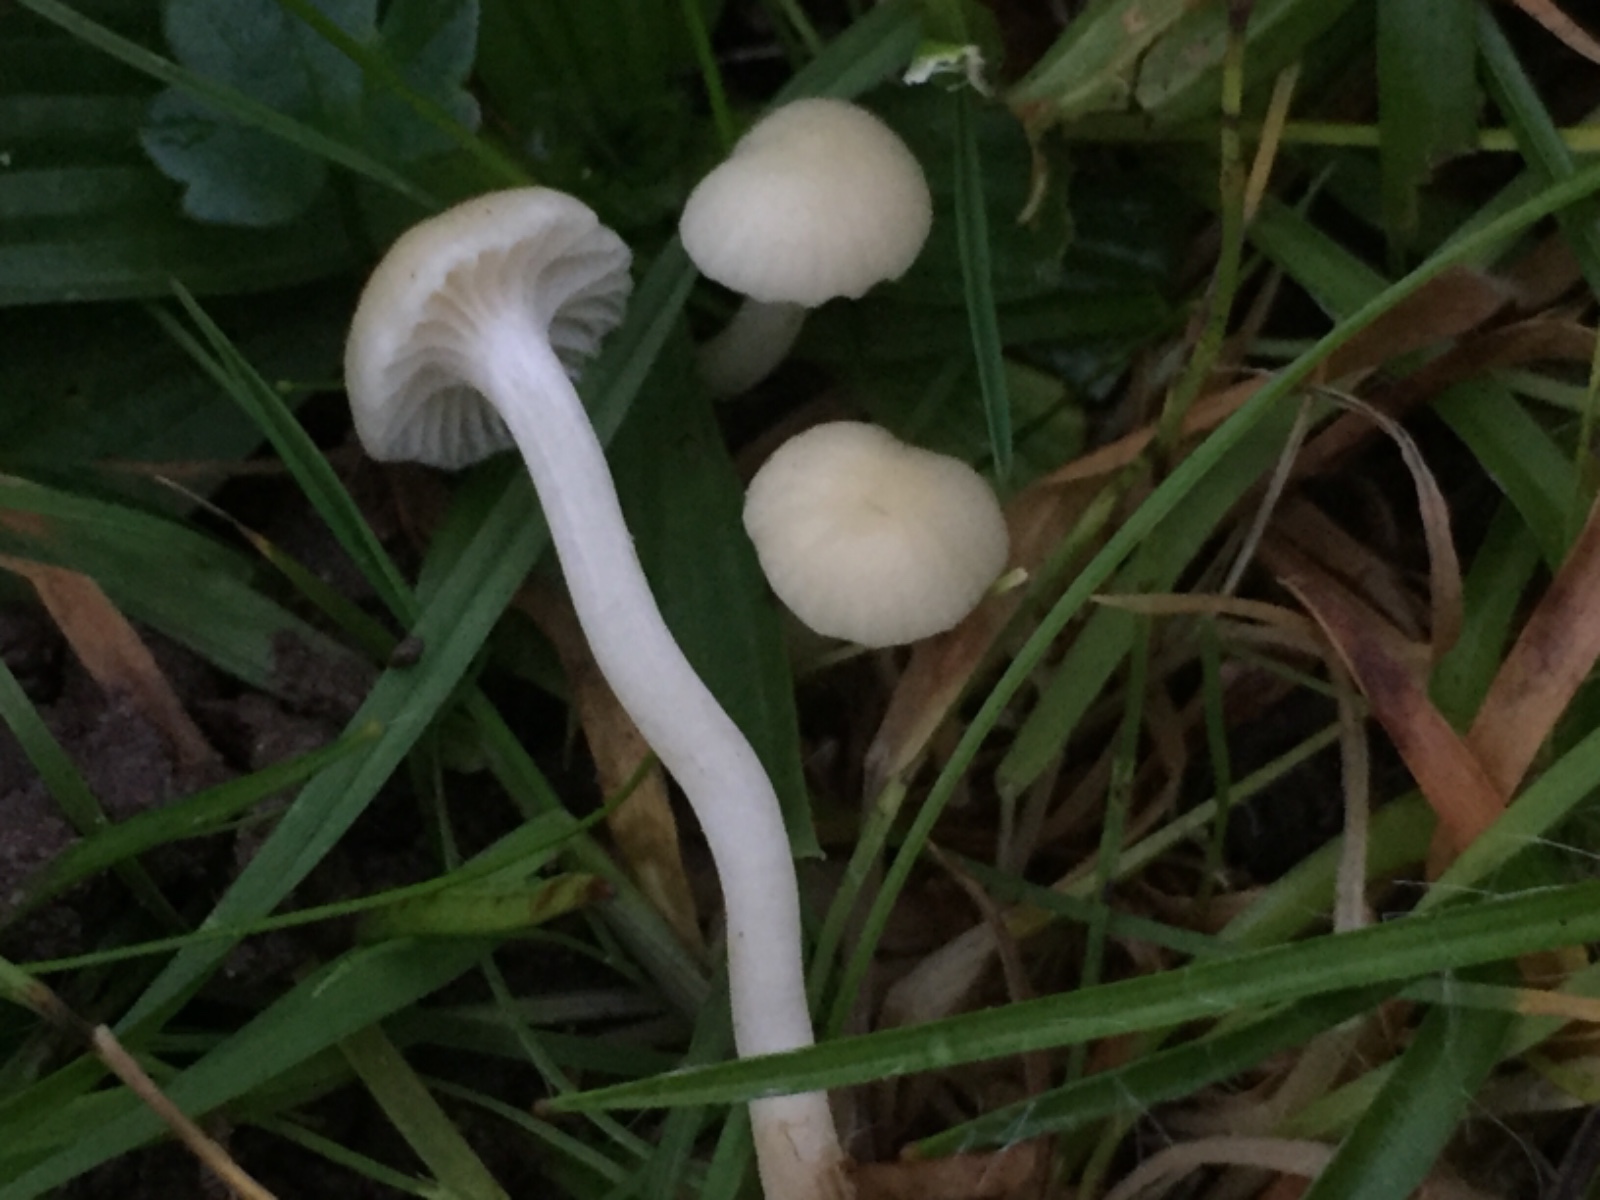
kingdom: Fungi
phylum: Basidiomycota
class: Agaricomycetes
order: Agaricales
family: Hygrophoraceae
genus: Cuphophyllus
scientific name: Cuphophyllus russocoriaceus
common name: ruslæder-vokshat
